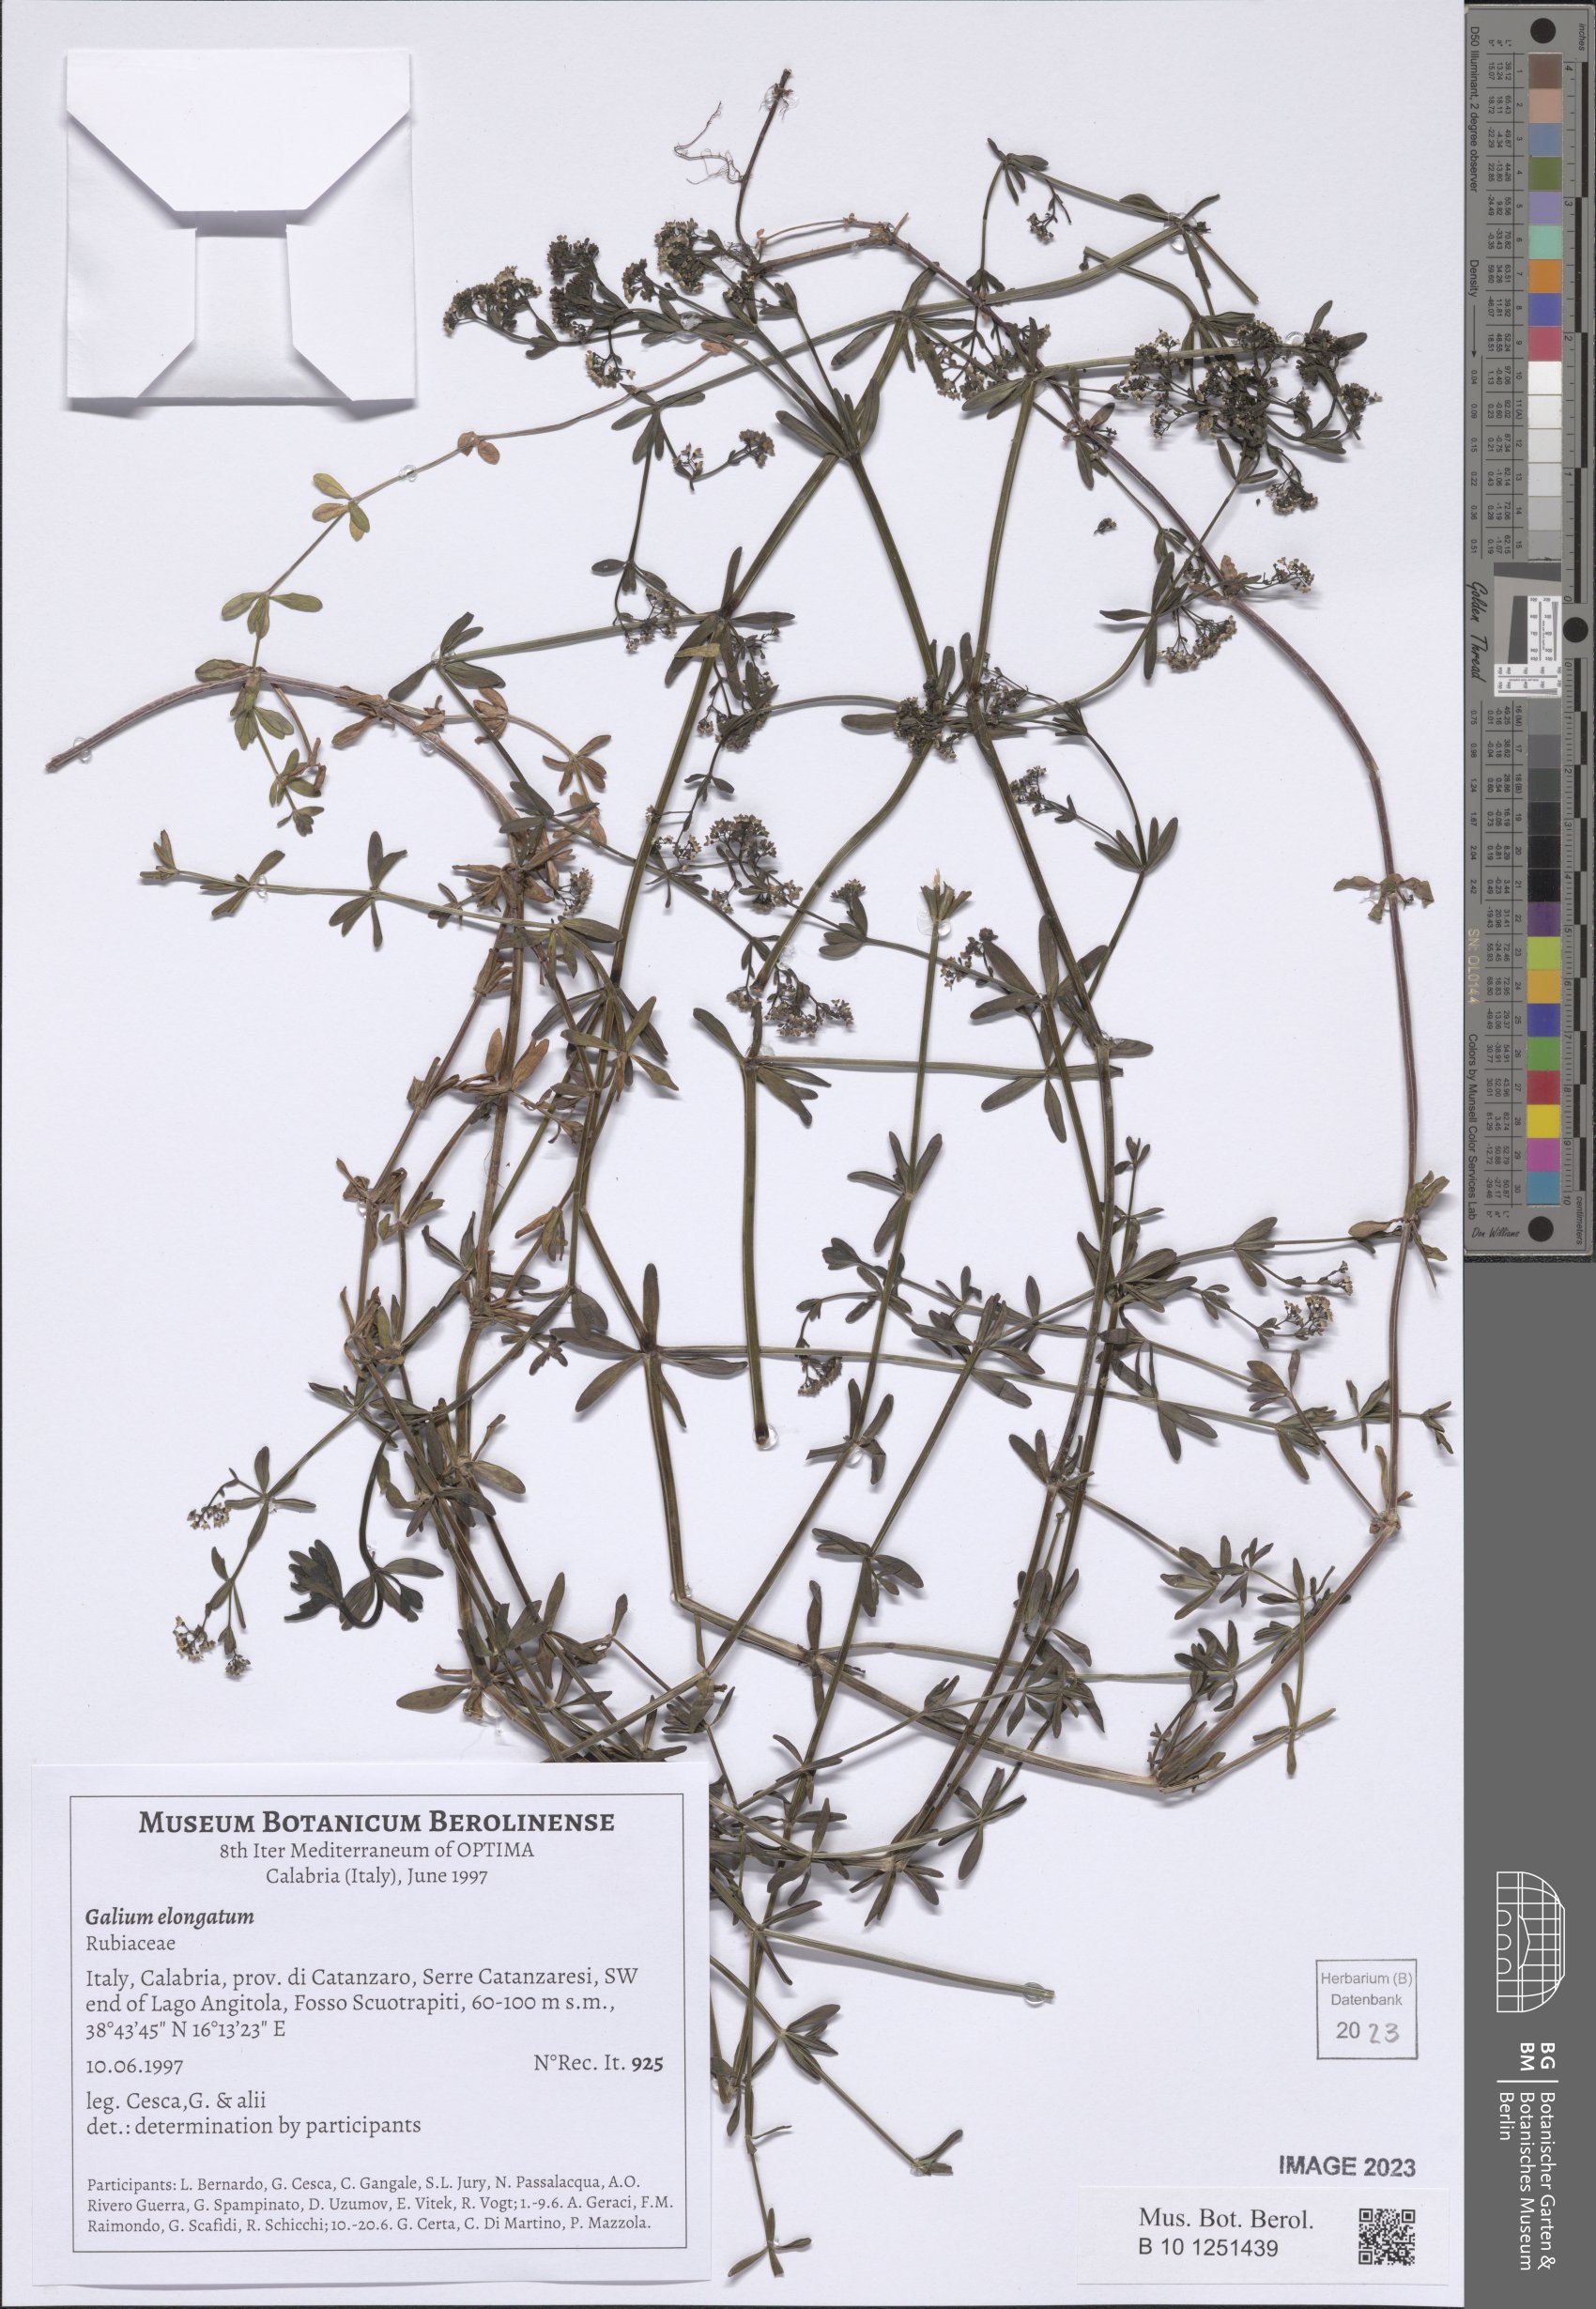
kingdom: Plantae
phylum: Tracheophyta
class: Magnoliopsida
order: Gentianales
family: Rubiaceae
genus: Galium
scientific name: Galium elongatum
